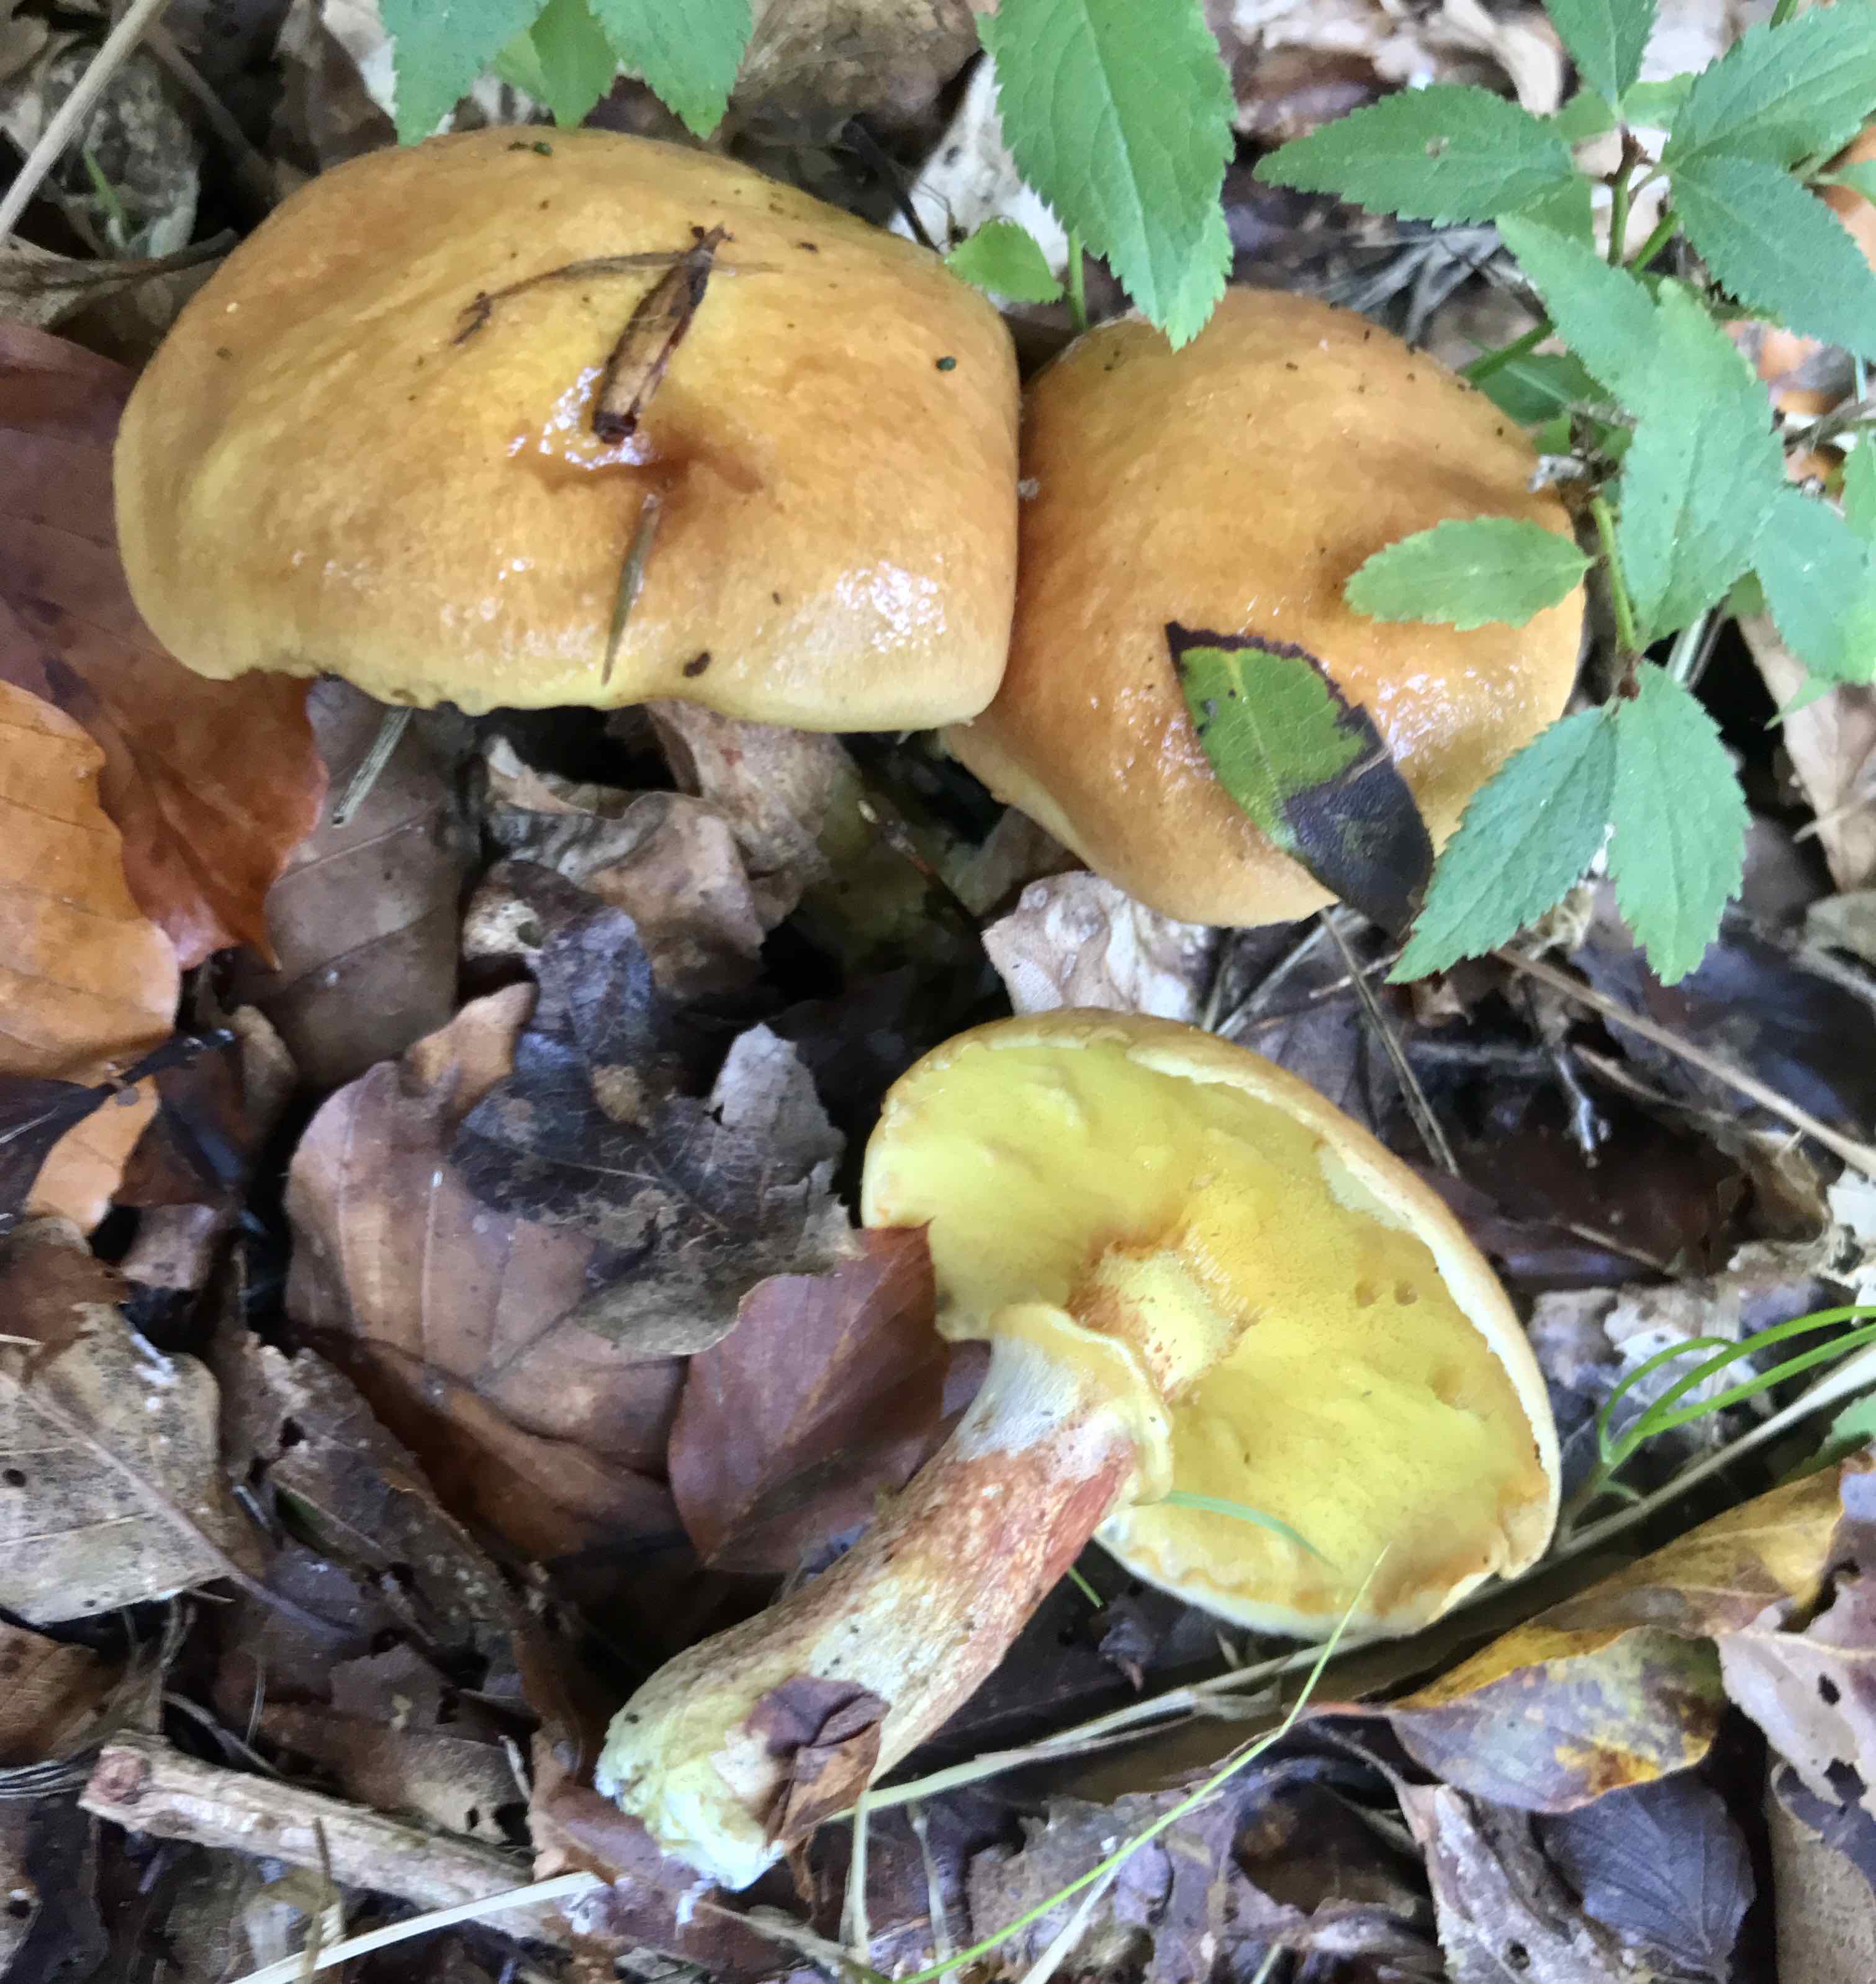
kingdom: Fungi
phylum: Basidiomycota
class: Agaricomycetes
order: Boletales
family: Suillaceae
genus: Suillus
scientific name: Suillus grevillei
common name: lærke-slimrørhat
